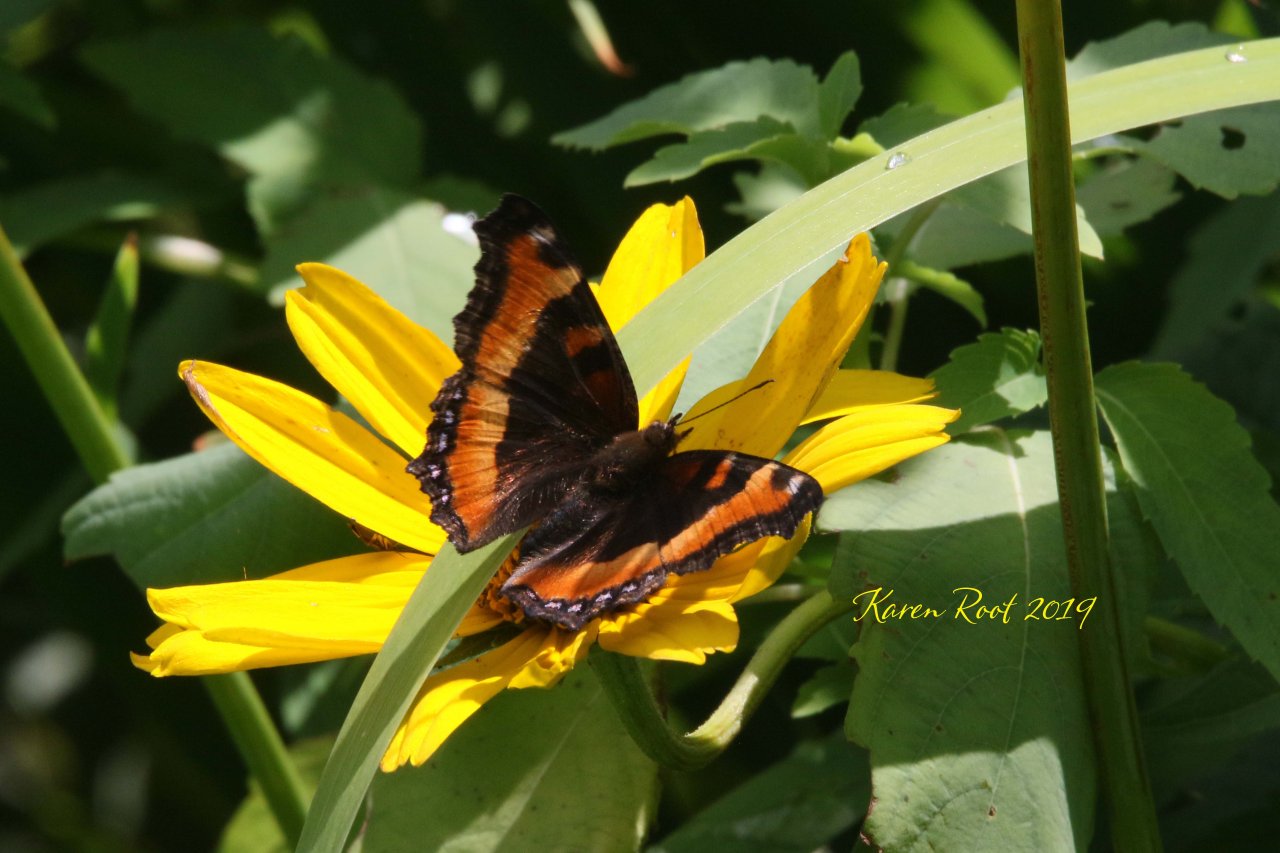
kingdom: Animalia
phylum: Arthropoda
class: Insecta
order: Lepidoptera
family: Nymphalidae
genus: Aglais
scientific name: Aglais milberti
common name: Milbert's Tortoiseshell
